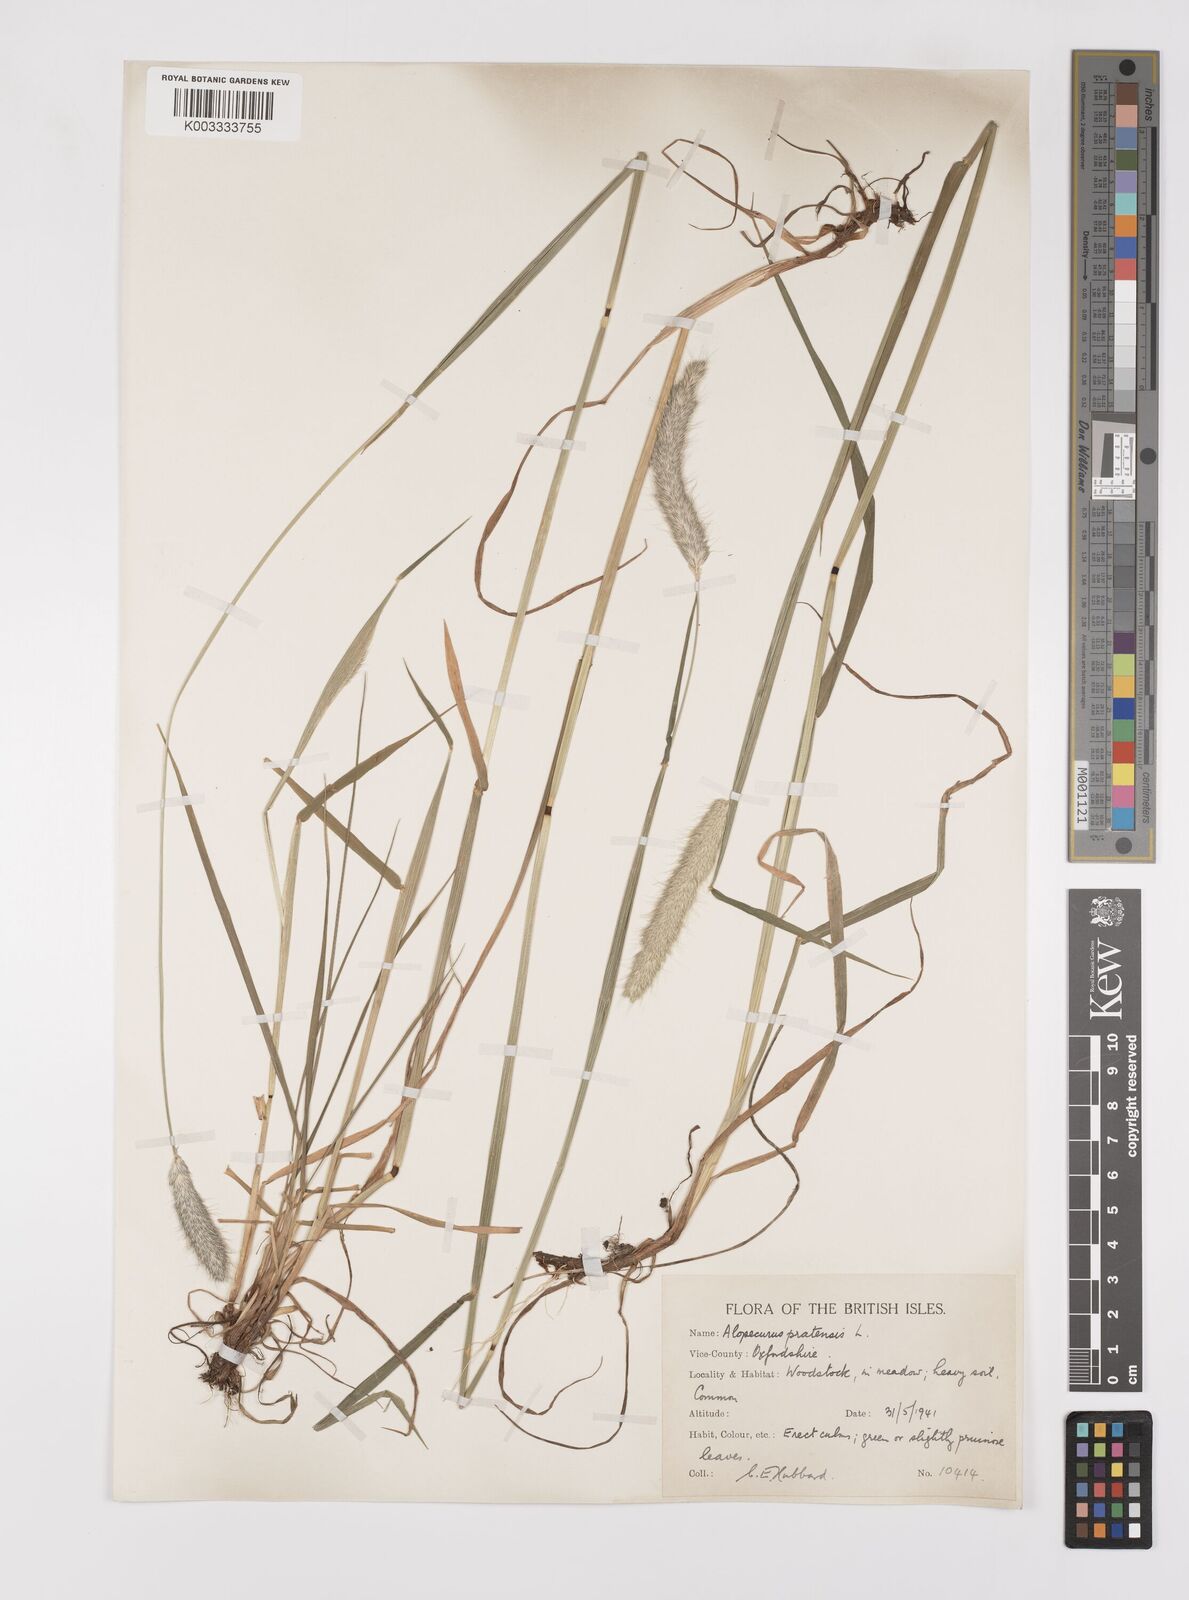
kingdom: Plantae
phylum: Tracheophyta
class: Liliopsida
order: Poales
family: Poaceae
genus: Alopecurus
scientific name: Alopecurus pratensis
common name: Meadow foxtail
